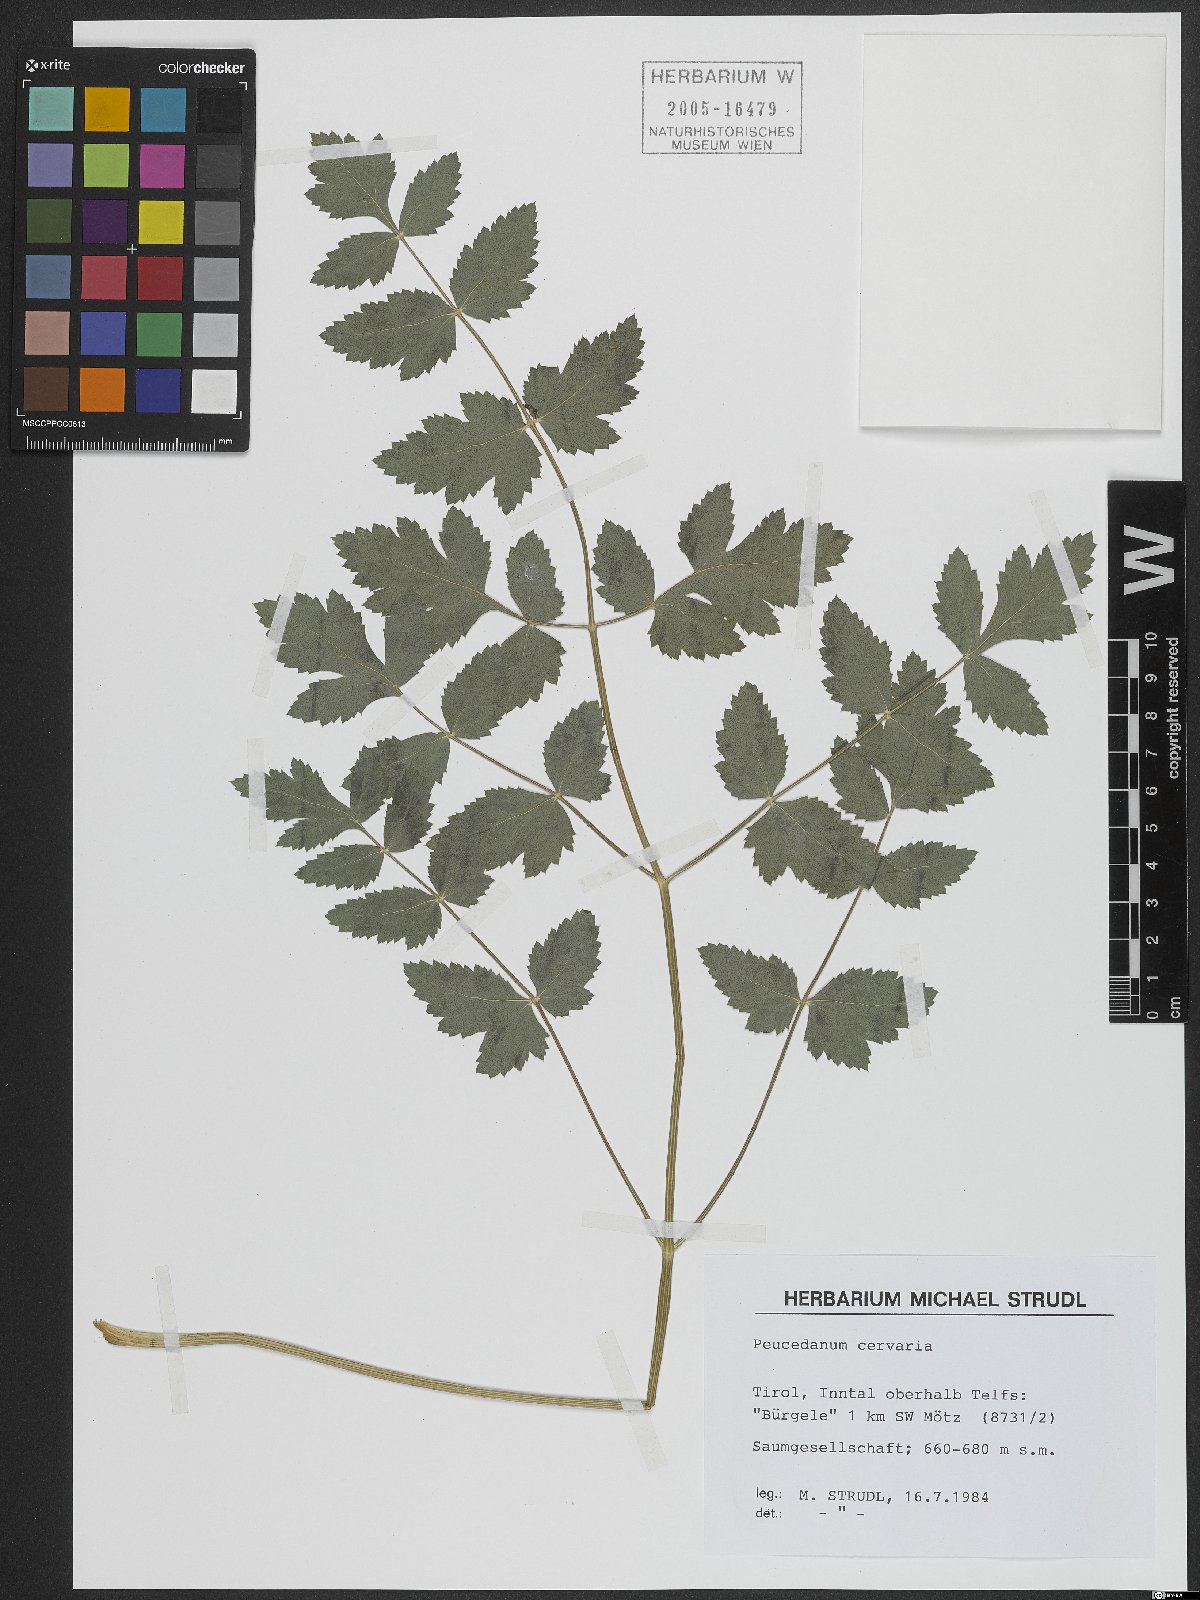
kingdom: Plantae
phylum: Tracheophyta
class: Magnoliopsida
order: Apiales
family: Apiaceae
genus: Cervaria
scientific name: Cervaria rivini
